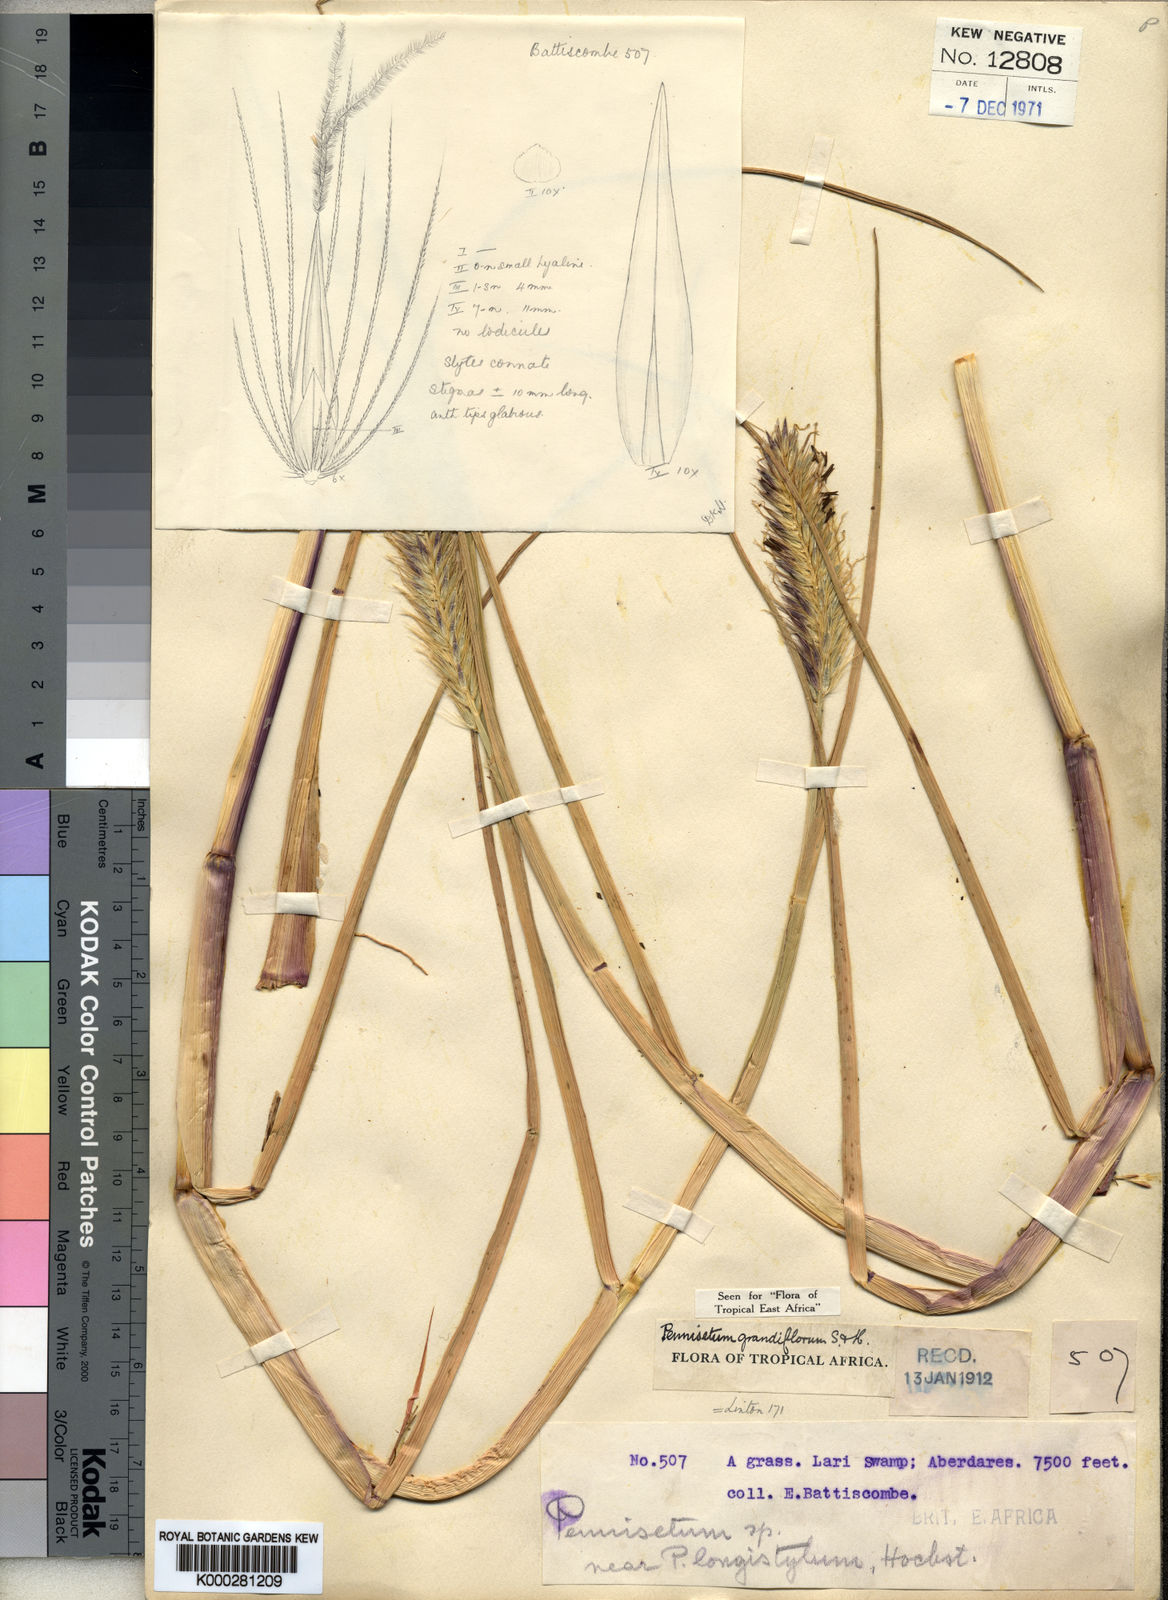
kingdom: Plantae
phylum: Tracheophyta
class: Liliopsida
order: Poales
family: Poaceae
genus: Cenchrus
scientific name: Cenchrus riparius
